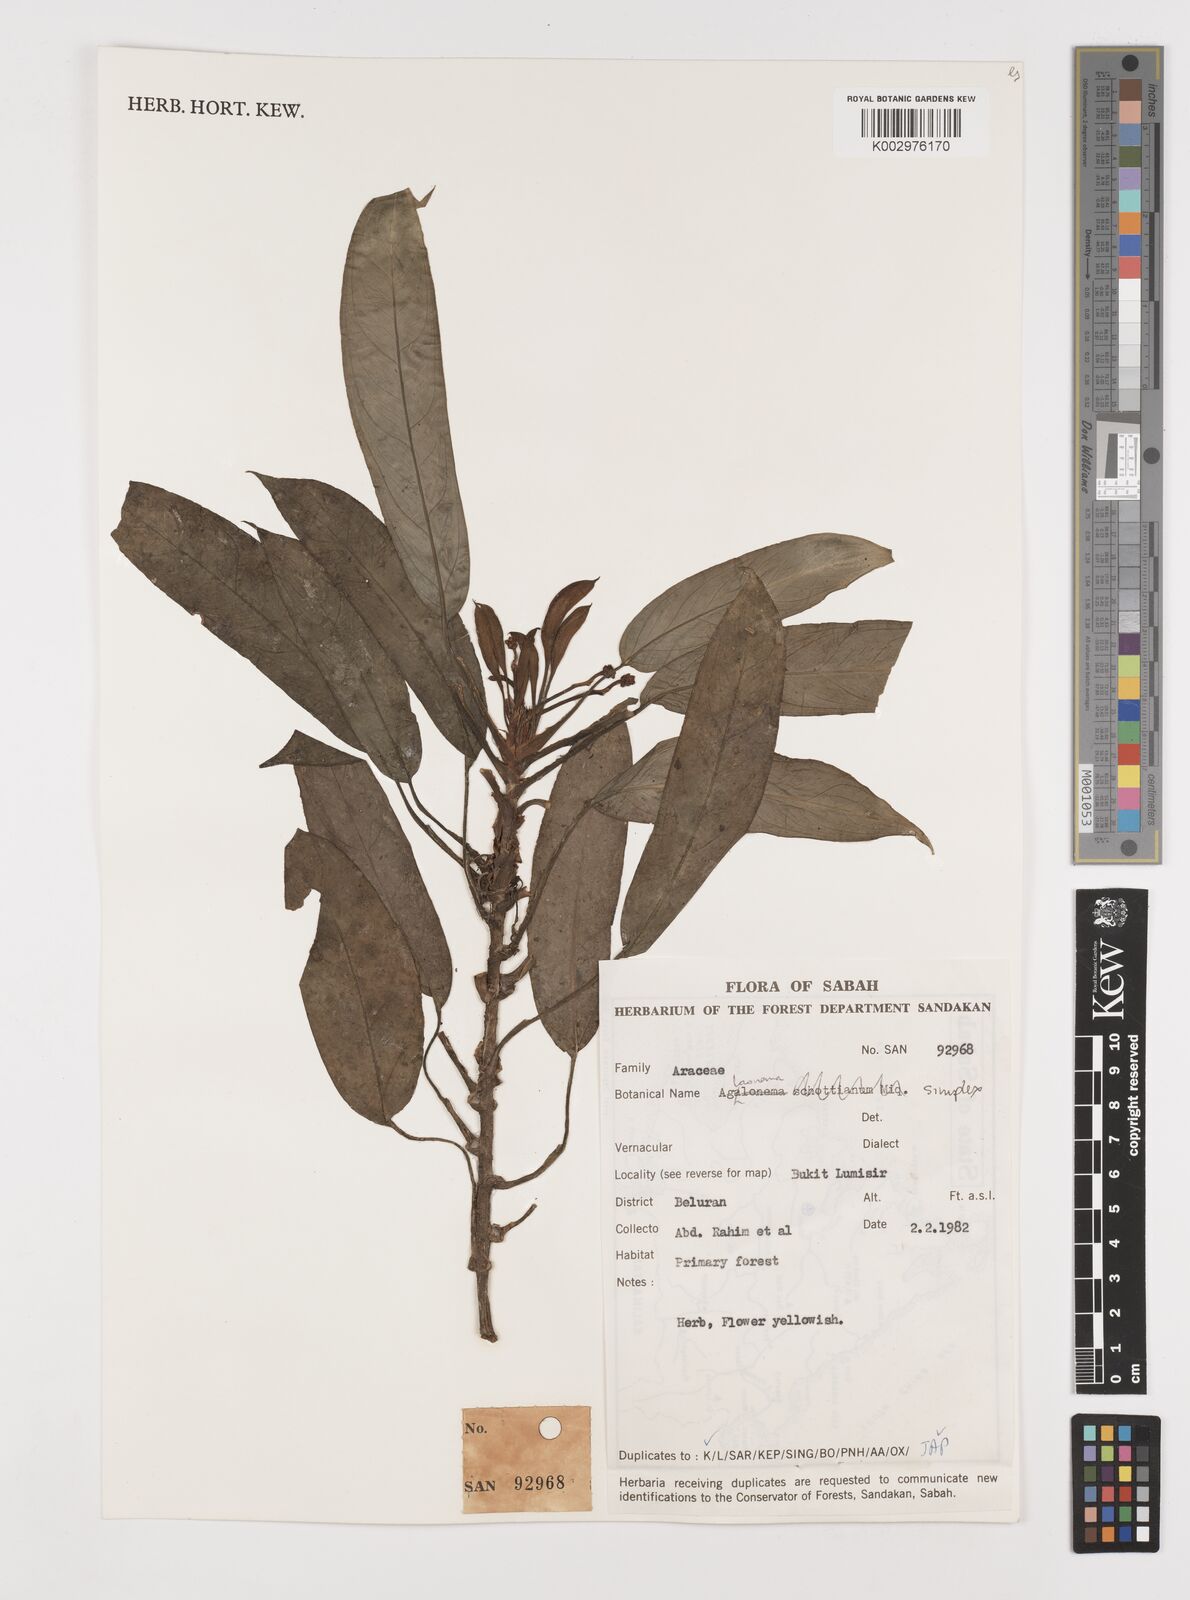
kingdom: Plantae
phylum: Tracheophyta
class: Liliopsida
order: Alismatales
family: Araceae
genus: Aglaonema
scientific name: Aglaonema simplex
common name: Malayan-sword
